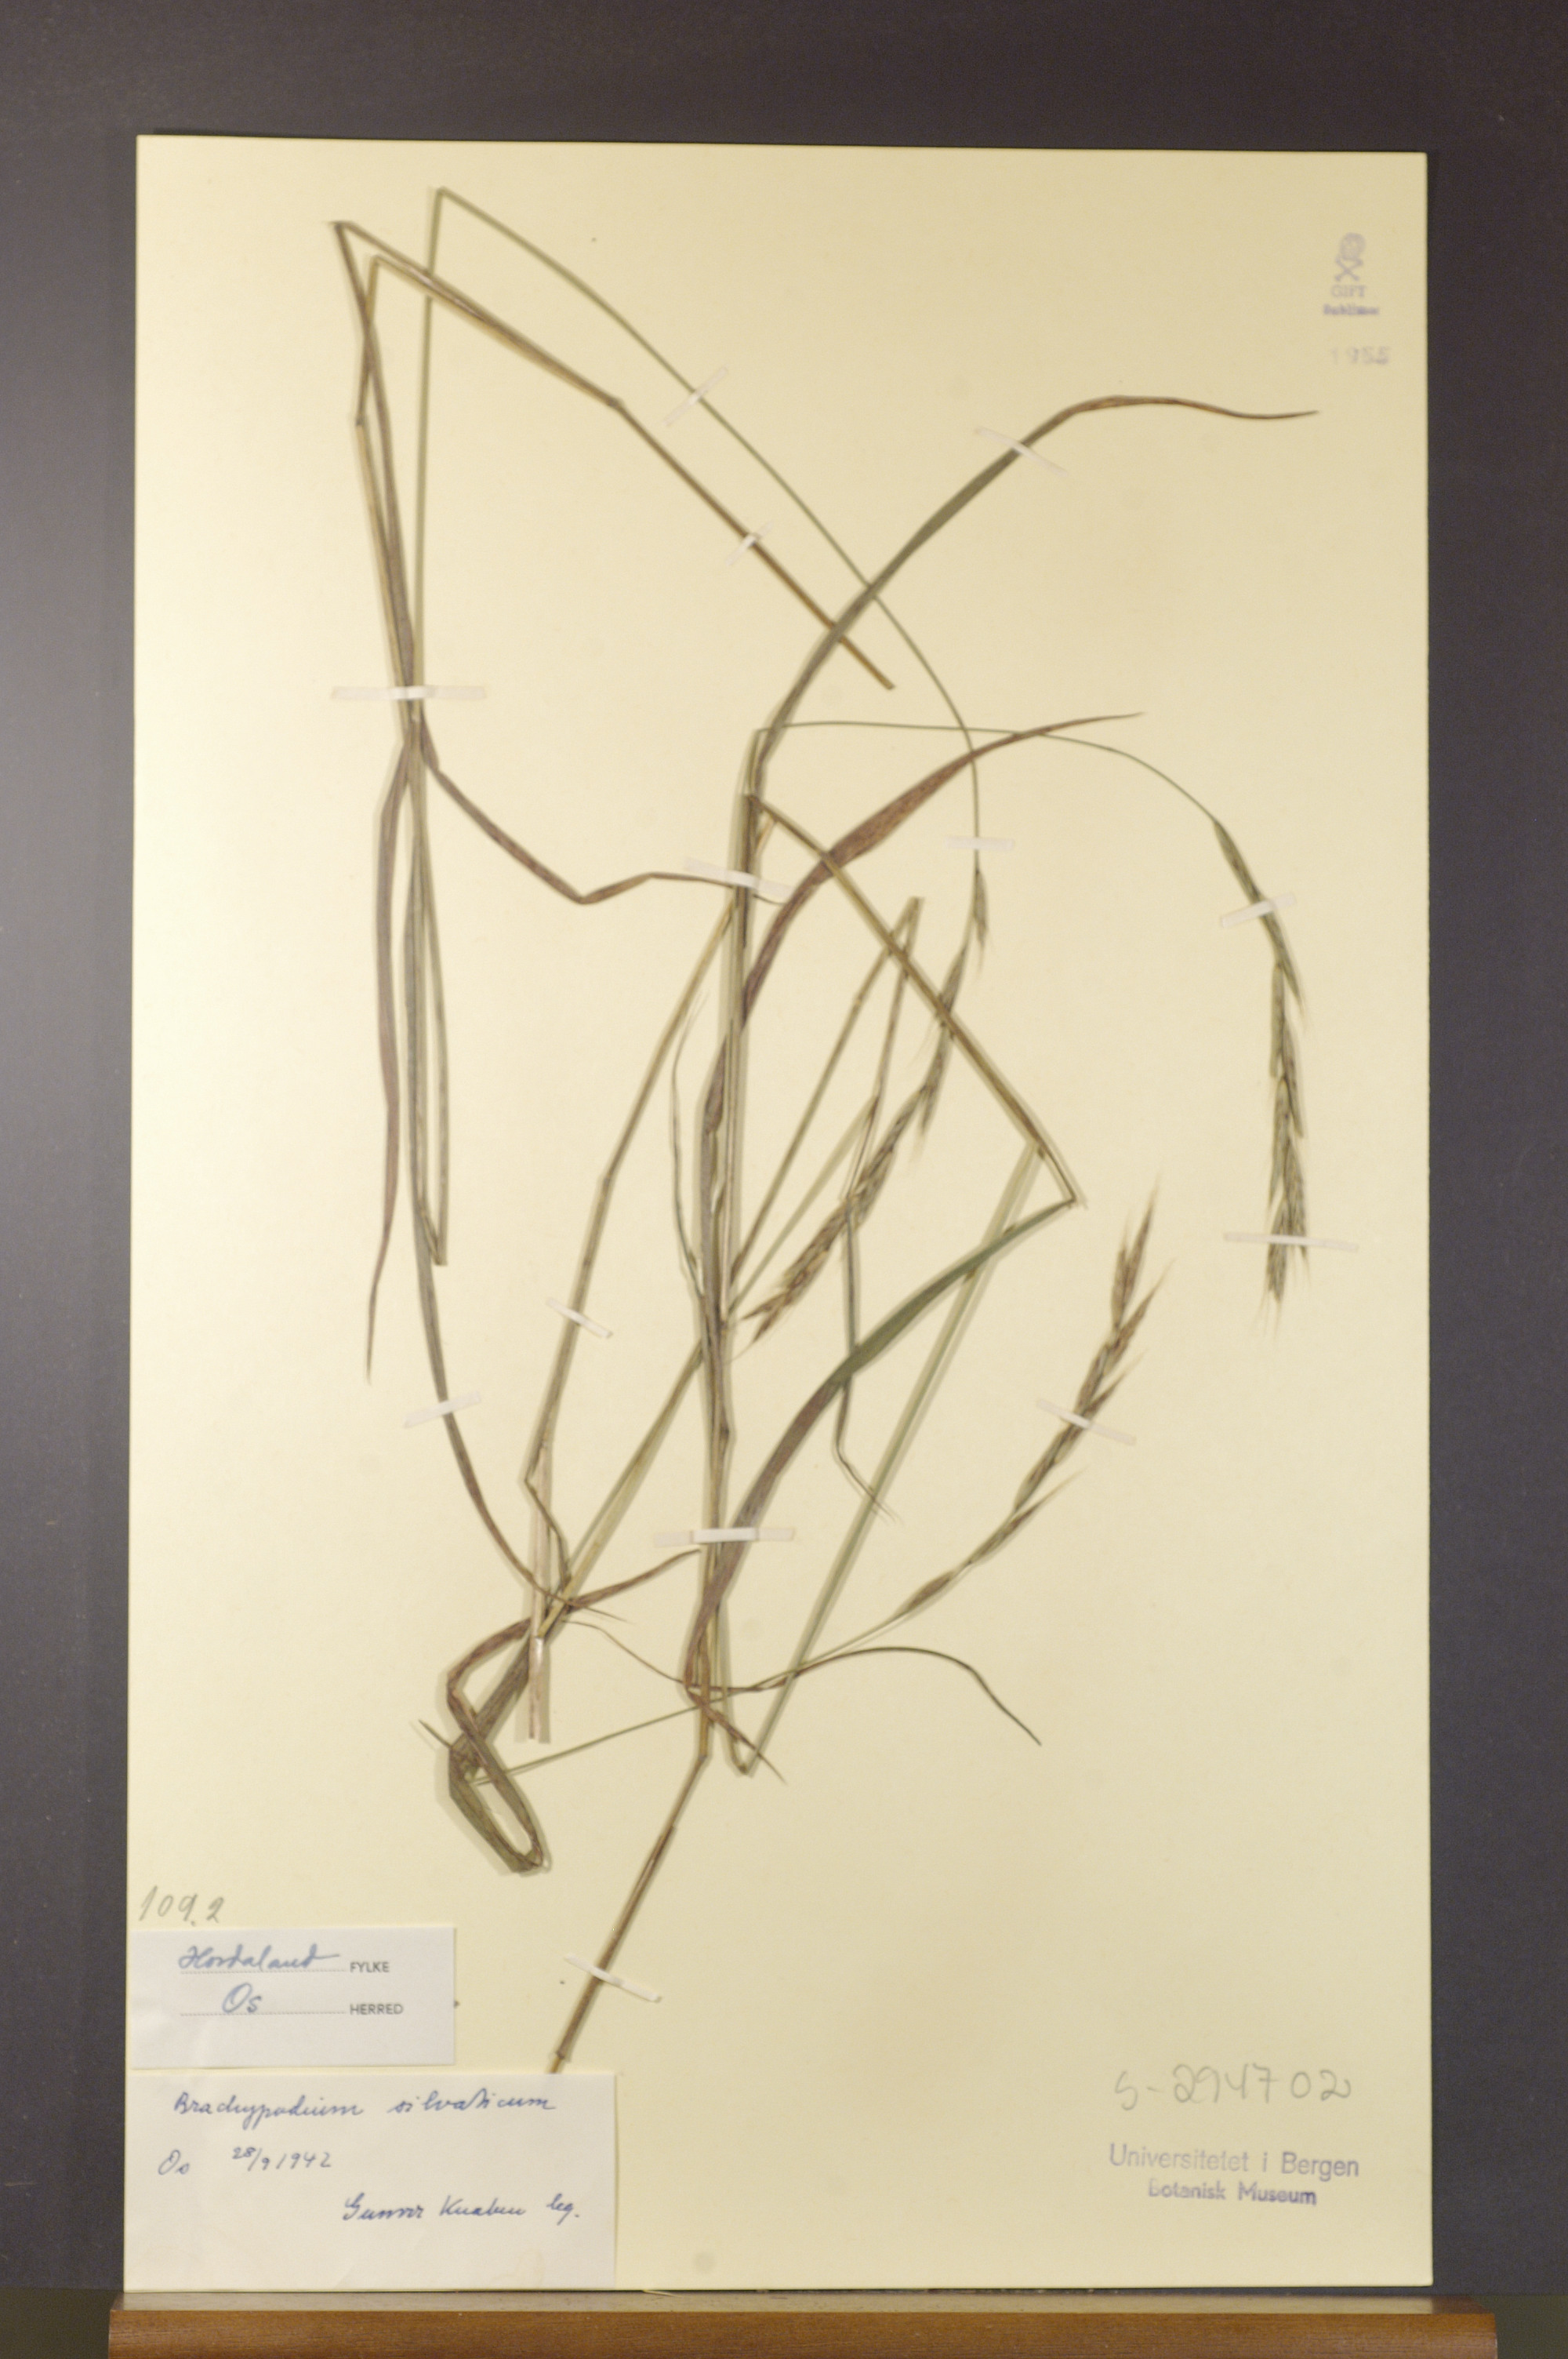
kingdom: Plantae
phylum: Tracheophyta
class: Liliopsida
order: Poales
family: Poaceae
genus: Brachypodium
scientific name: Brachypodium sylvaticum
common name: False-brome
